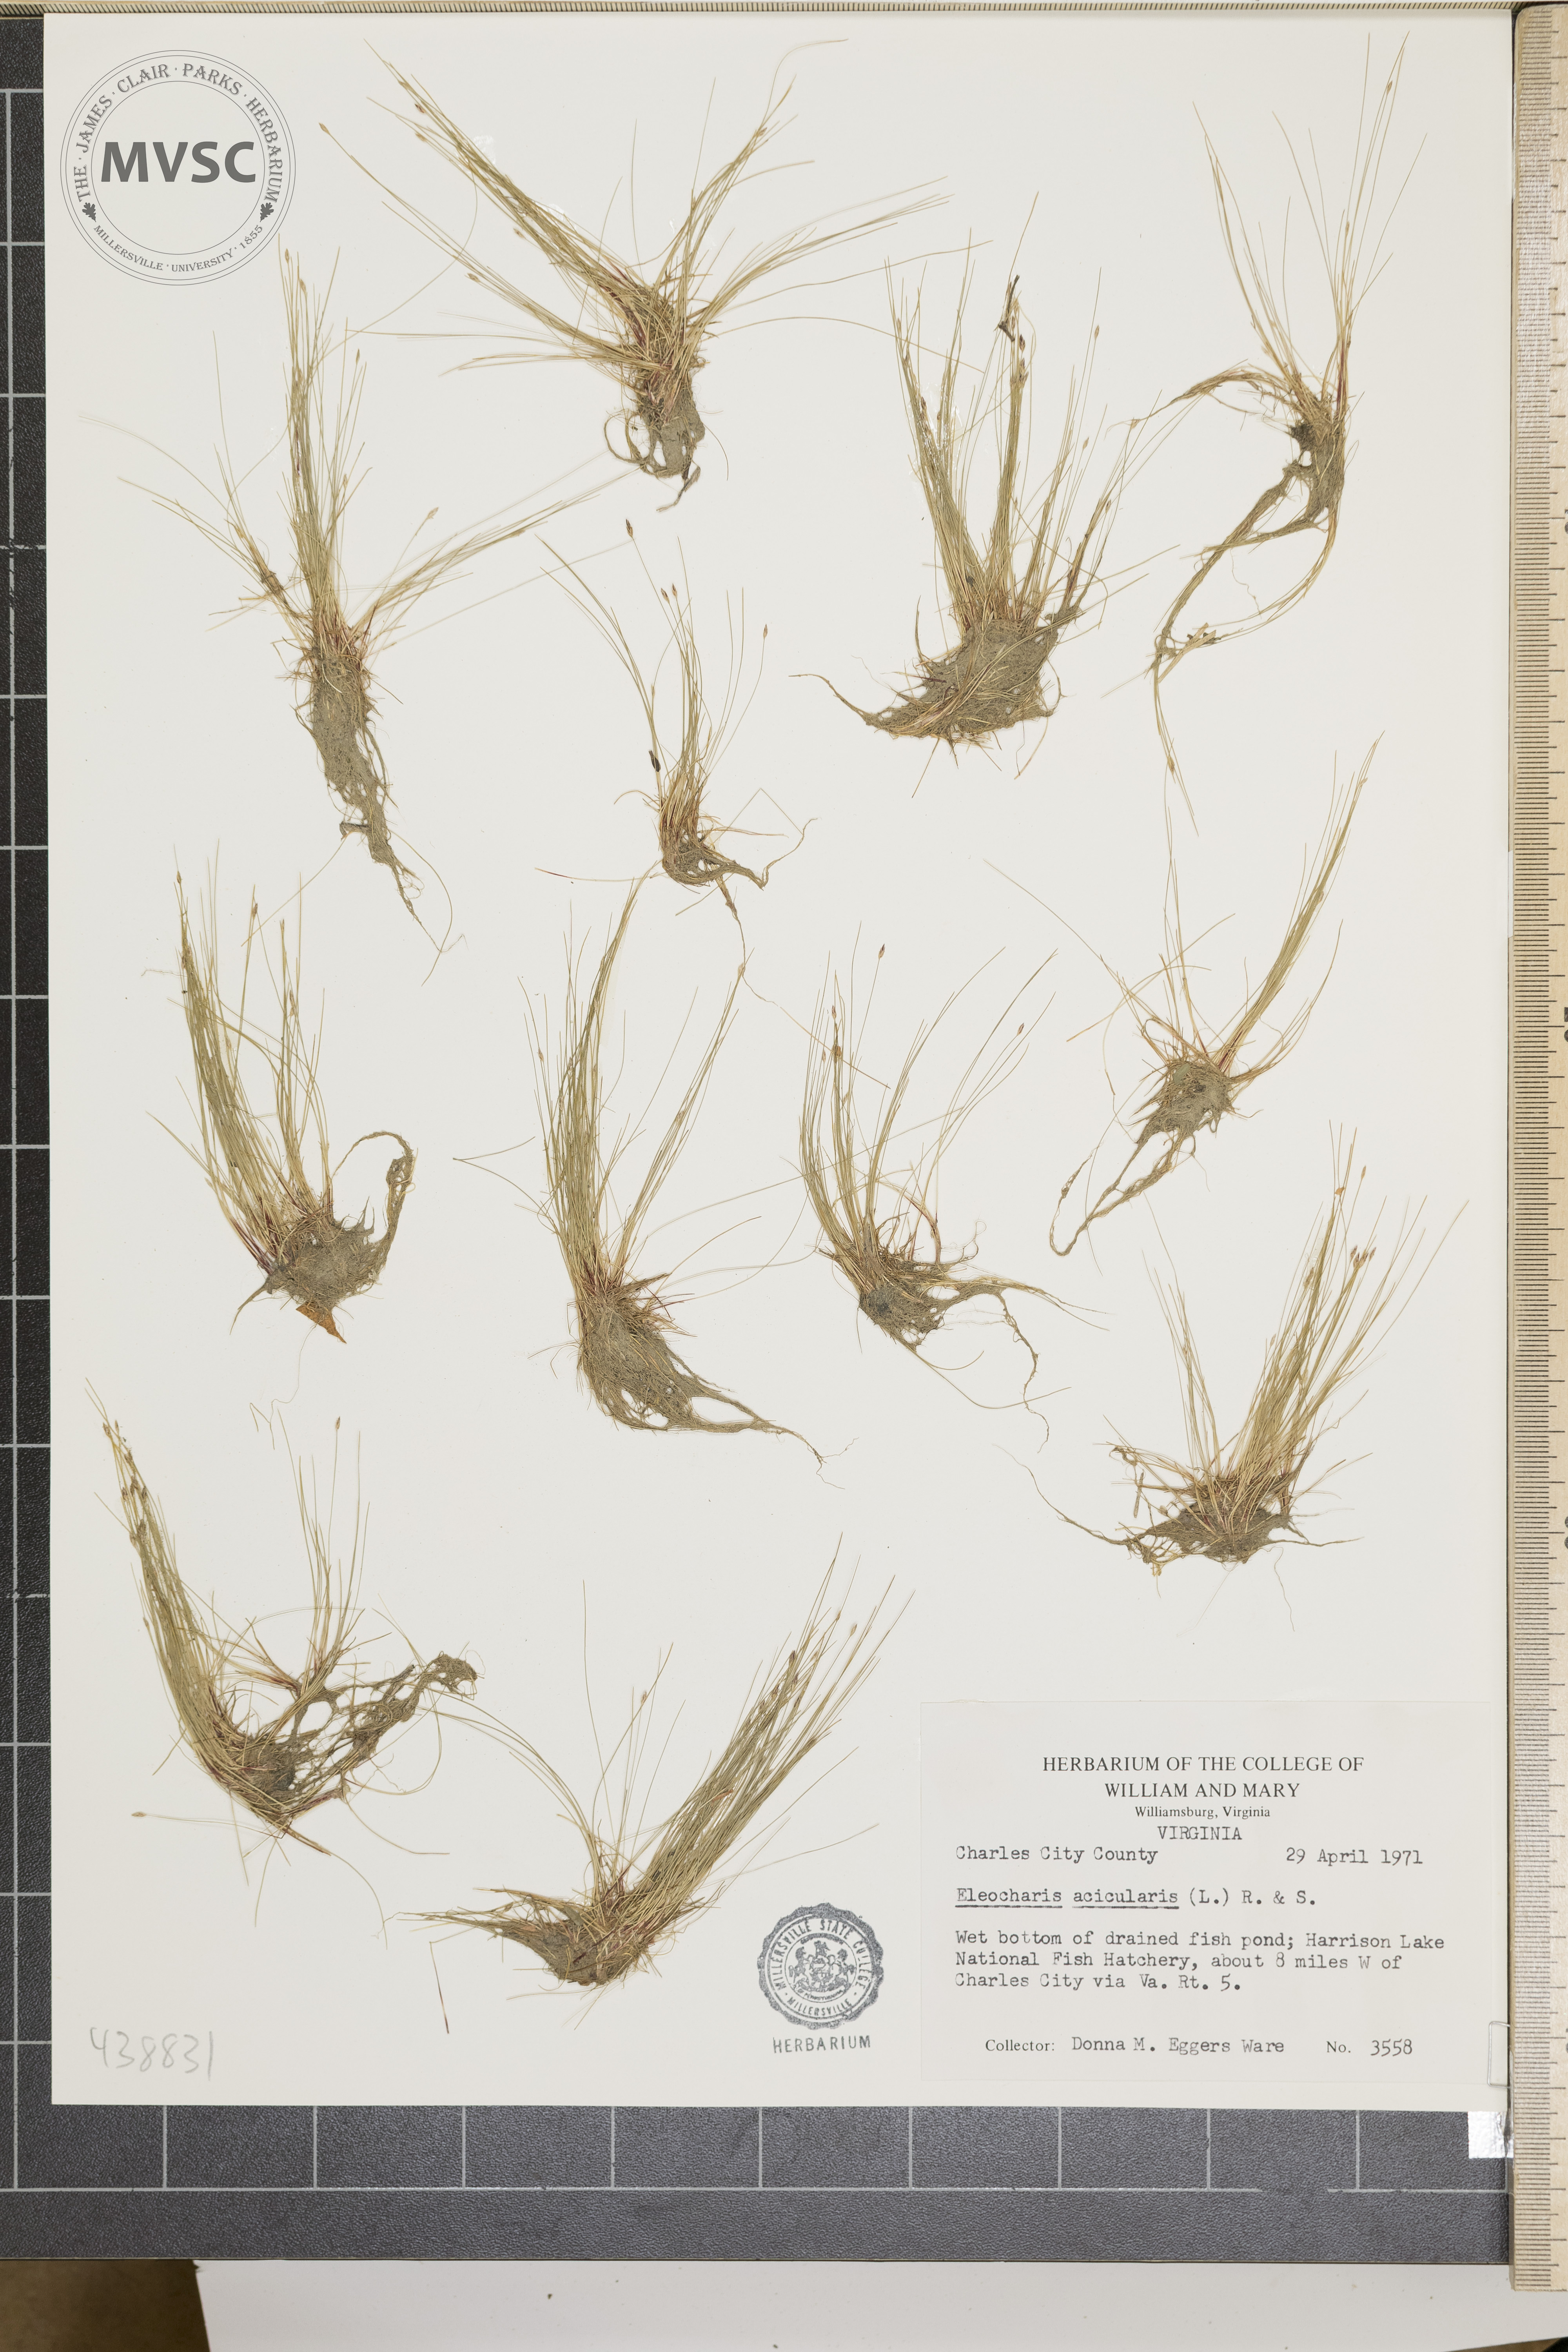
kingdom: Plantae
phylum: Tracheophyta
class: Liliopsida
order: Poales
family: Cyperaceae
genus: Eleocharis
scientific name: Eleocharis acicularis
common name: Needle spike-rush
